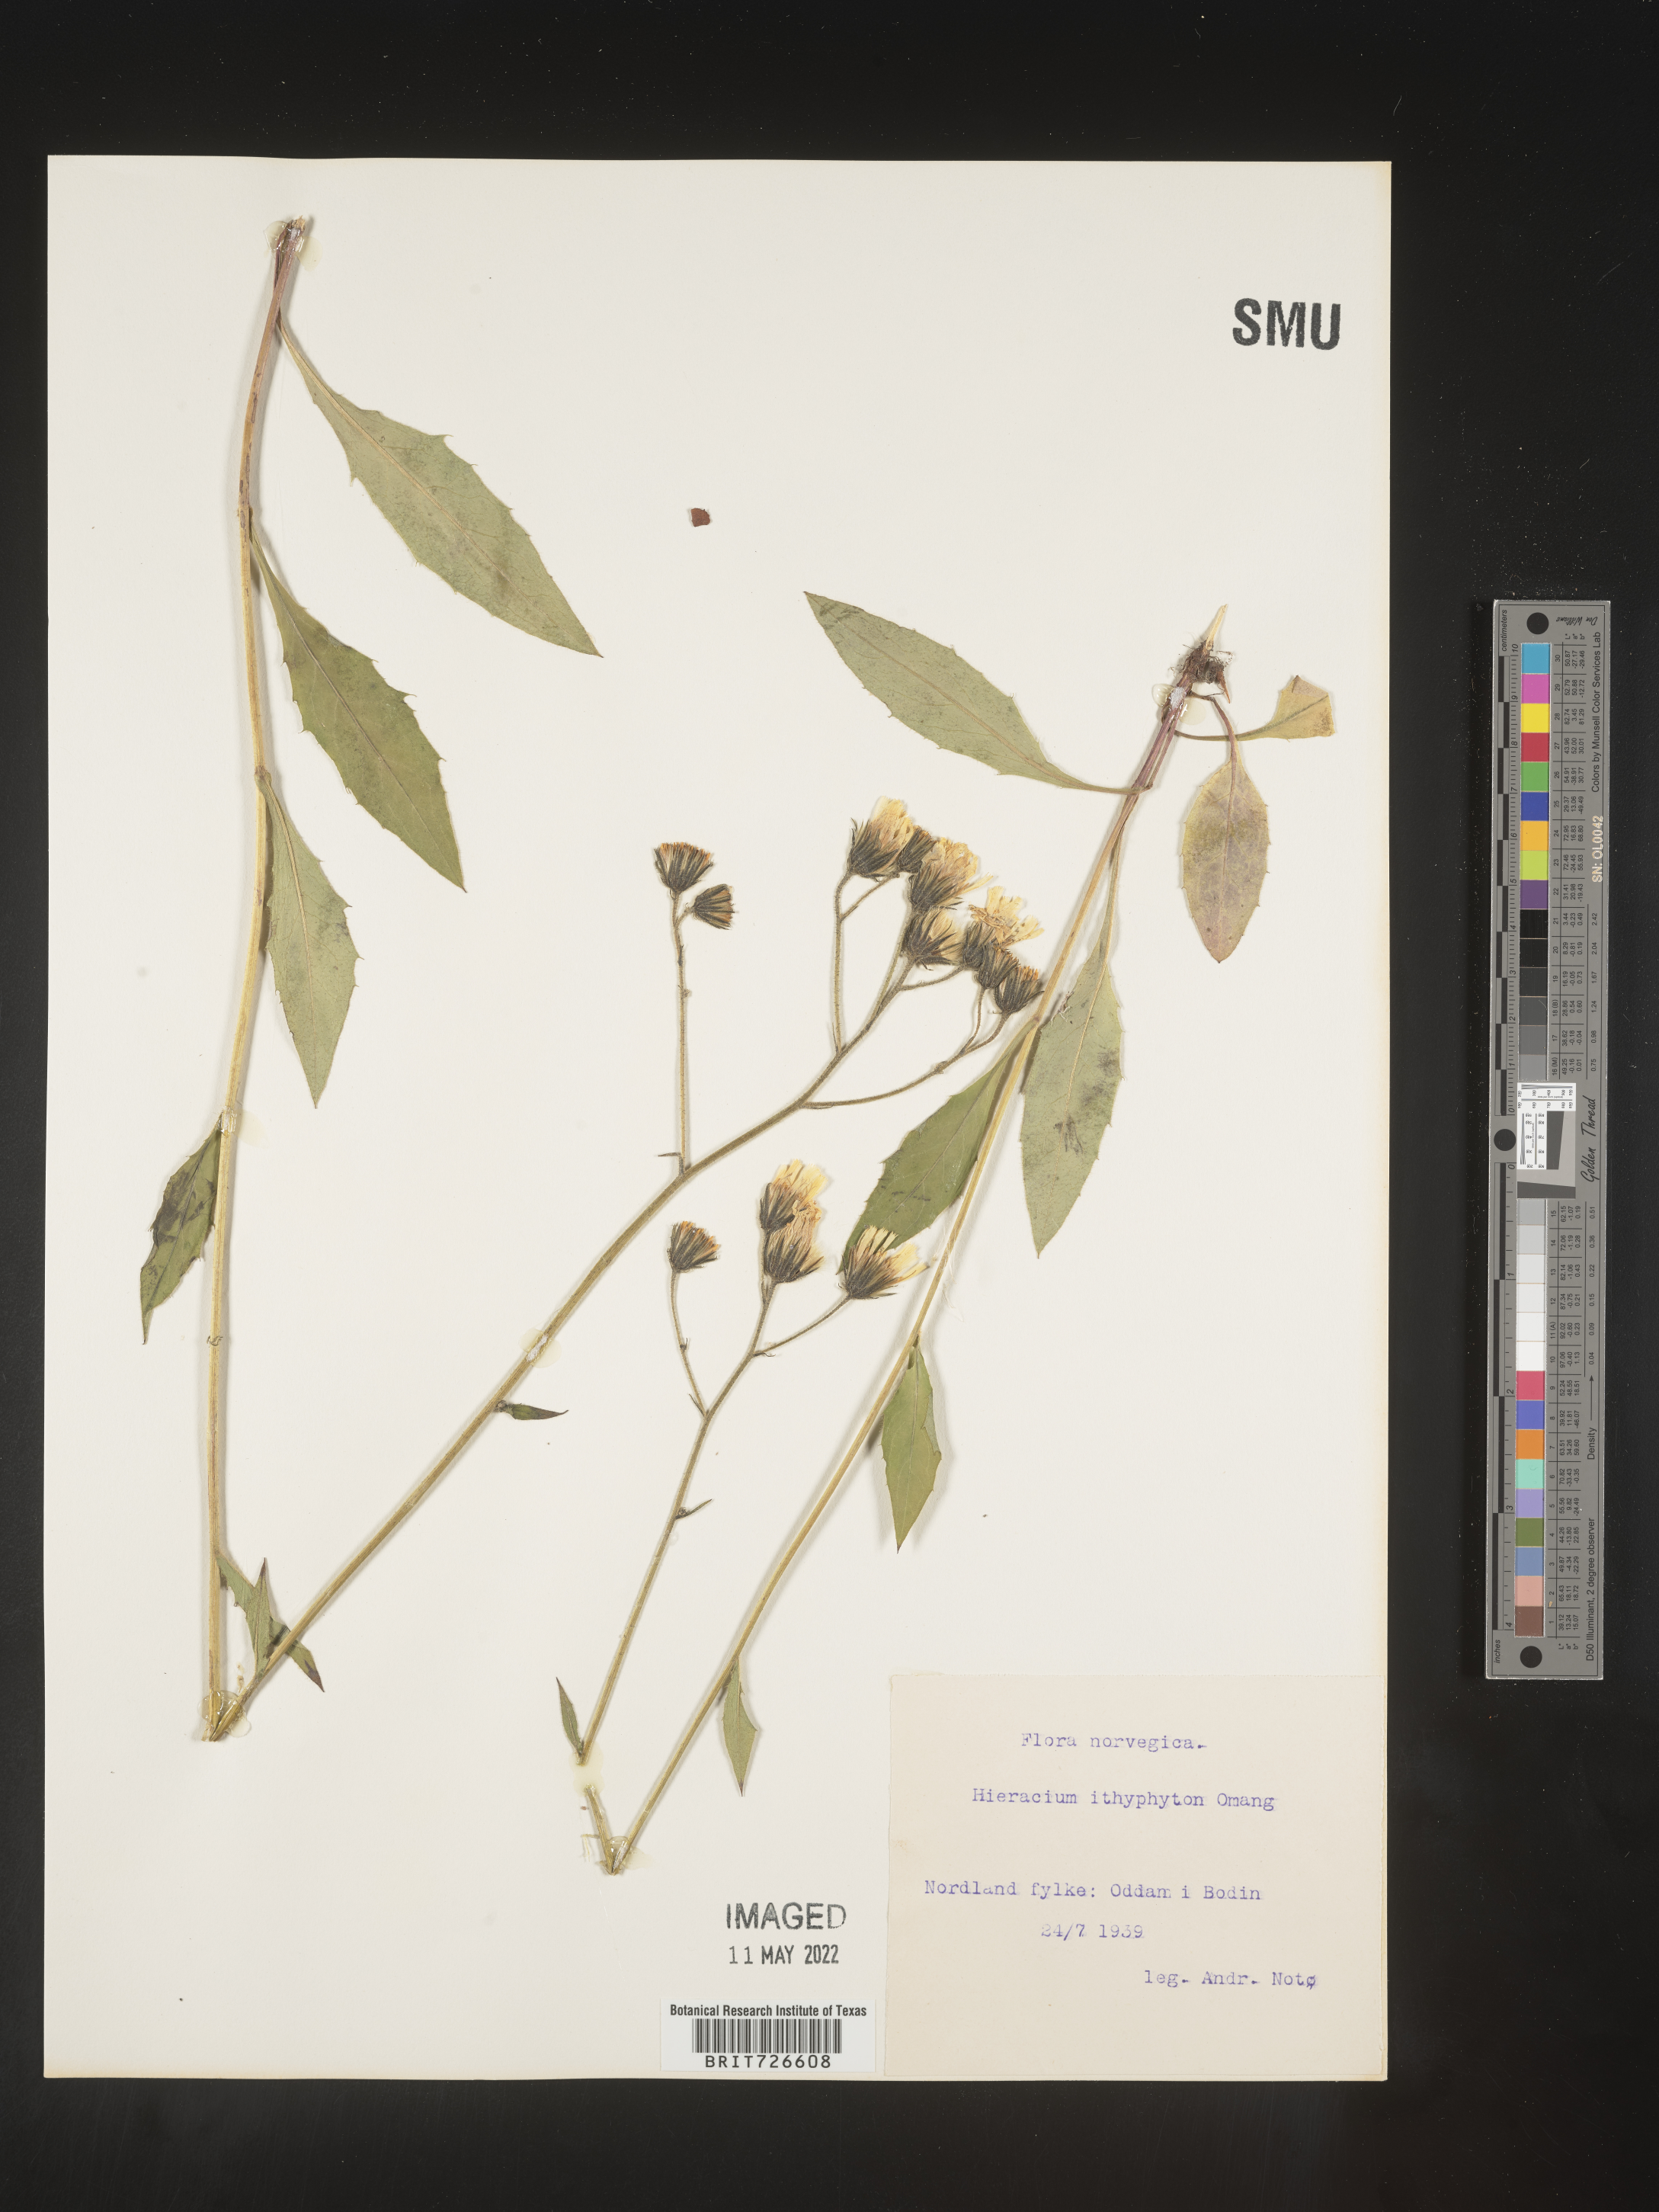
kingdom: Plantae
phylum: Tracheophyta
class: Magnoliopsida
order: Asterales
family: Asteraceae
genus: Hieracium
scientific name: Hieracium
